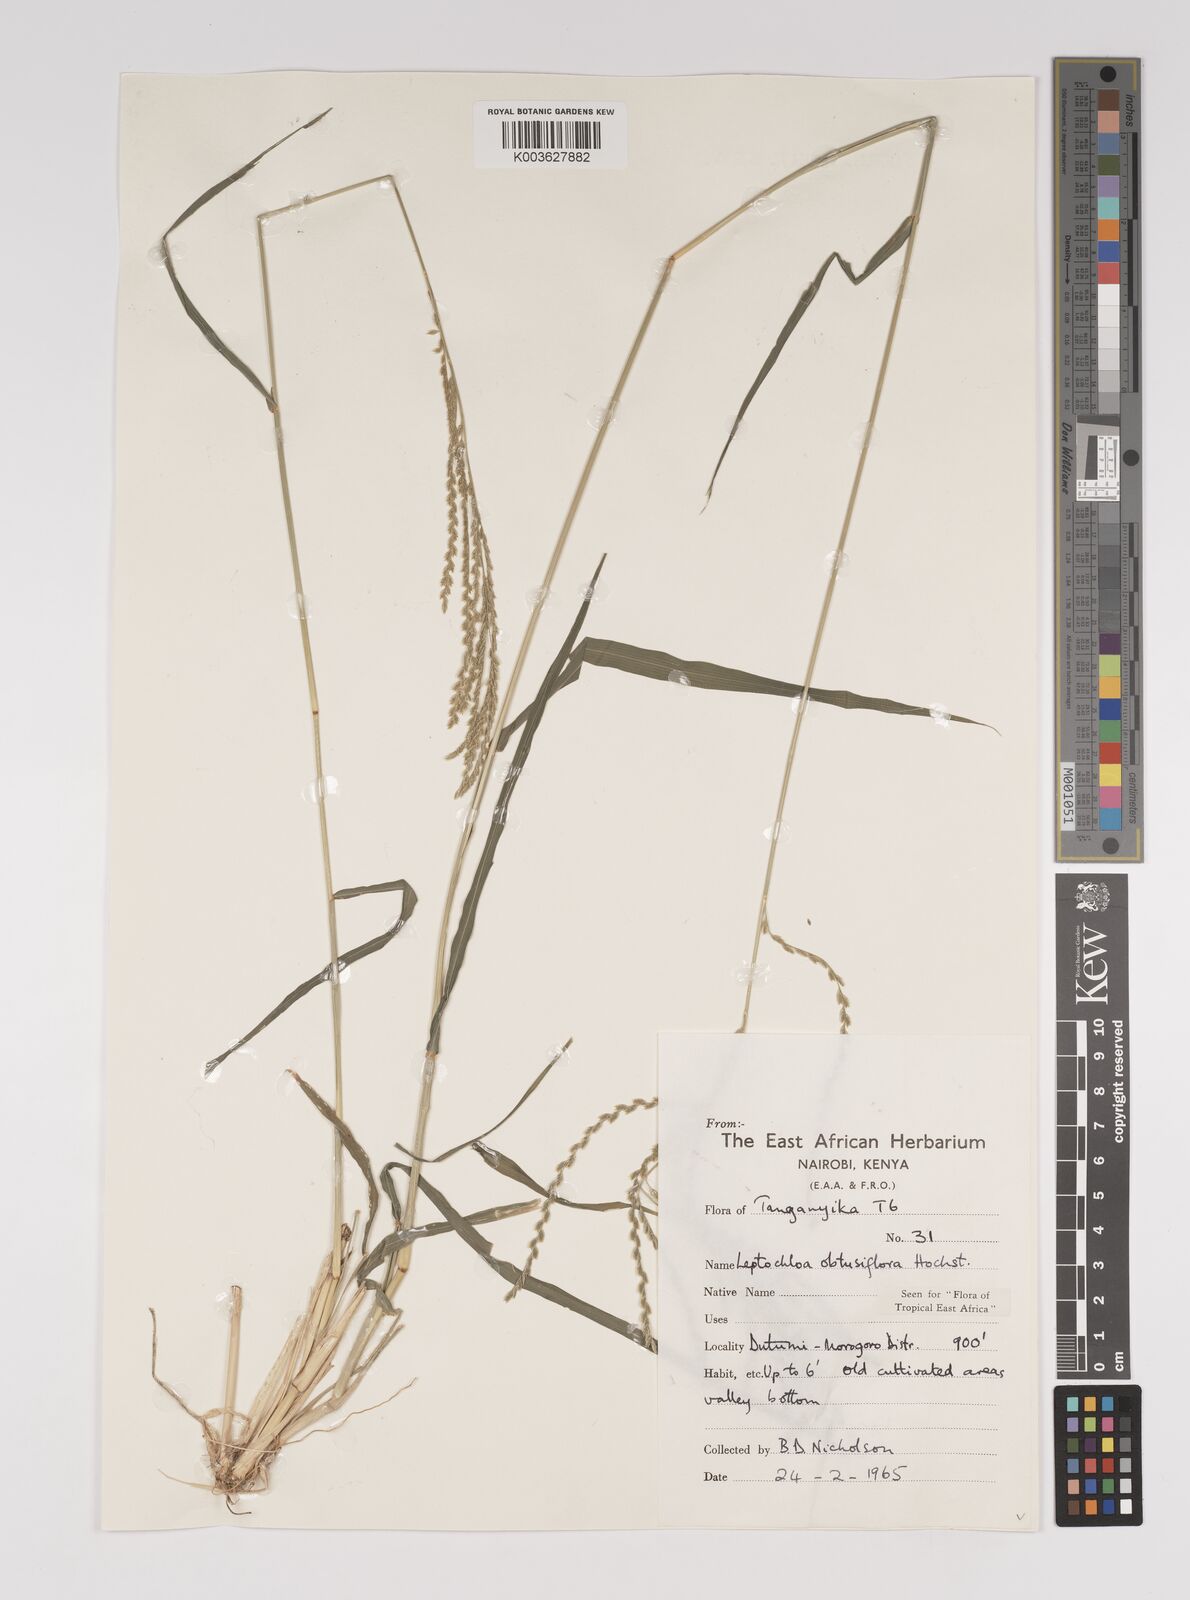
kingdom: Plantae
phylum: Tracheophyta
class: Liliopsida
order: Poales
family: Poaceae
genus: Disakisperma
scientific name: Disakisperma obtusiflorum
